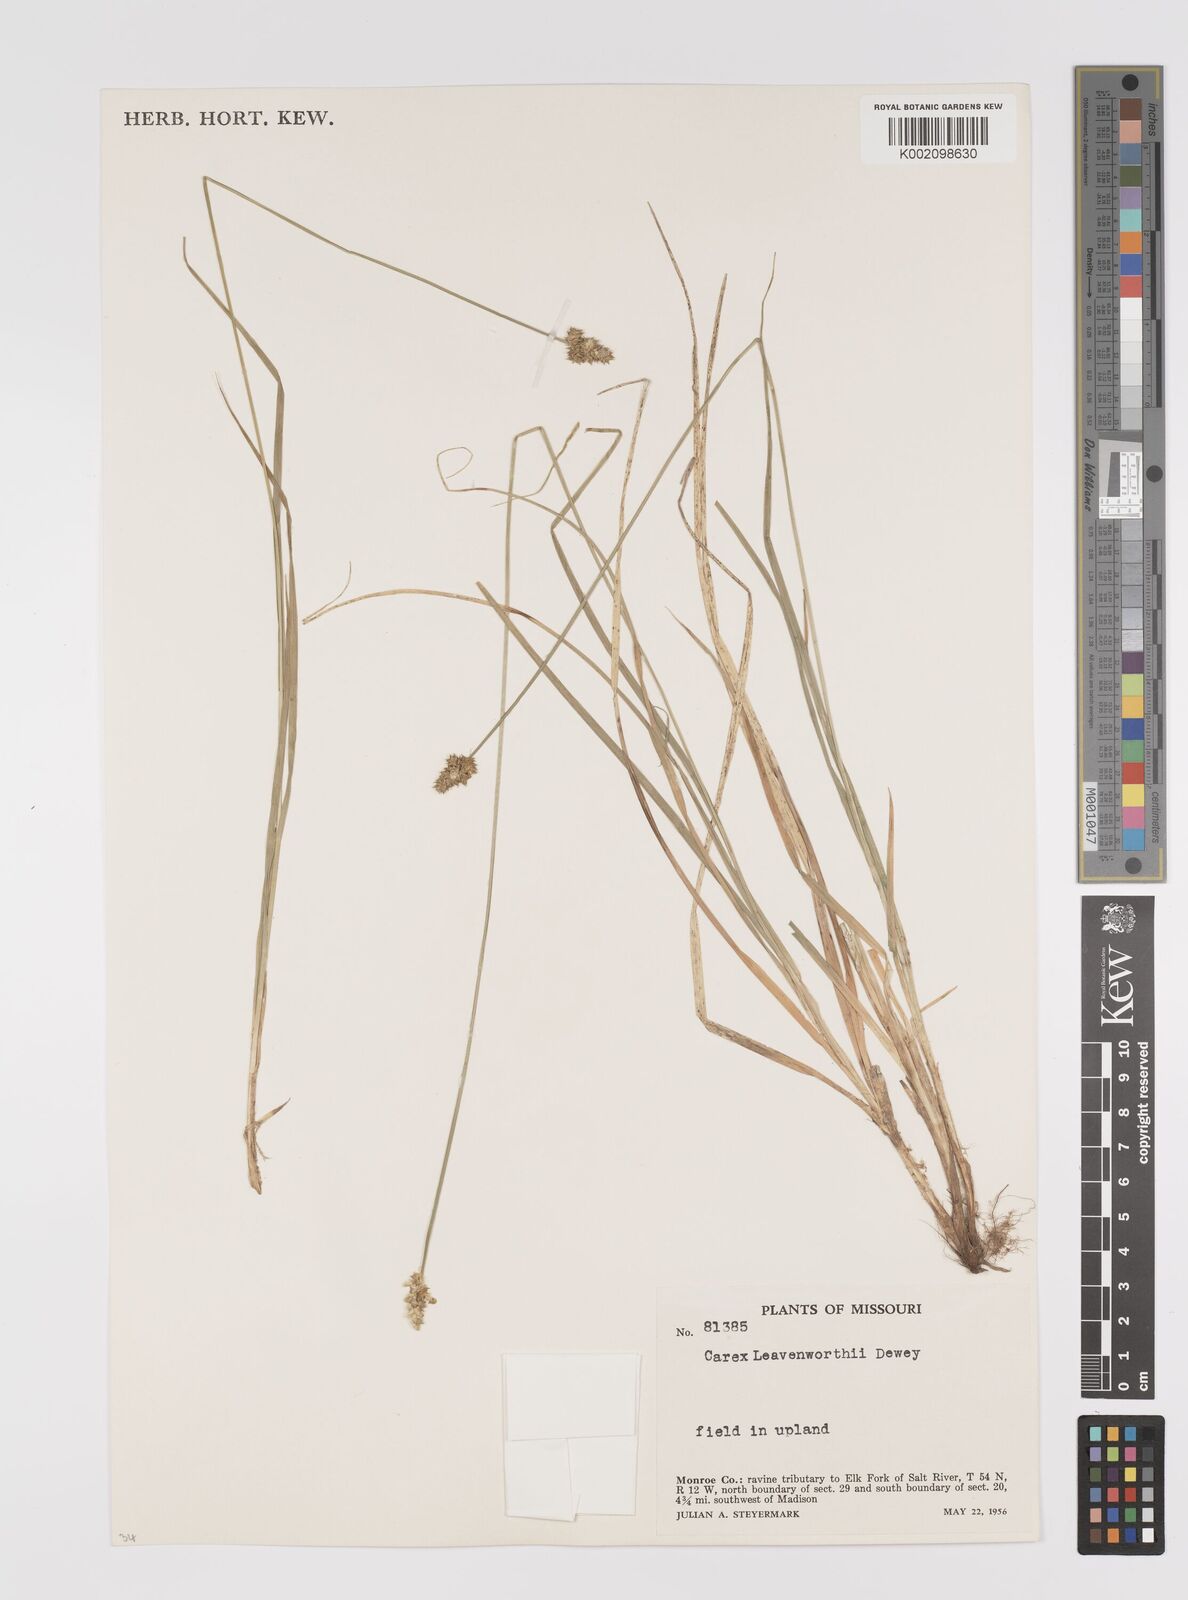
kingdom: Plantae
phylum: Tracheophyta
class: Liliopsida
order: Poales
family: Cyperaceae
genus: Carex
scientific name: Carex leavenworthii
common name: Leavenworth's bracted sedge
